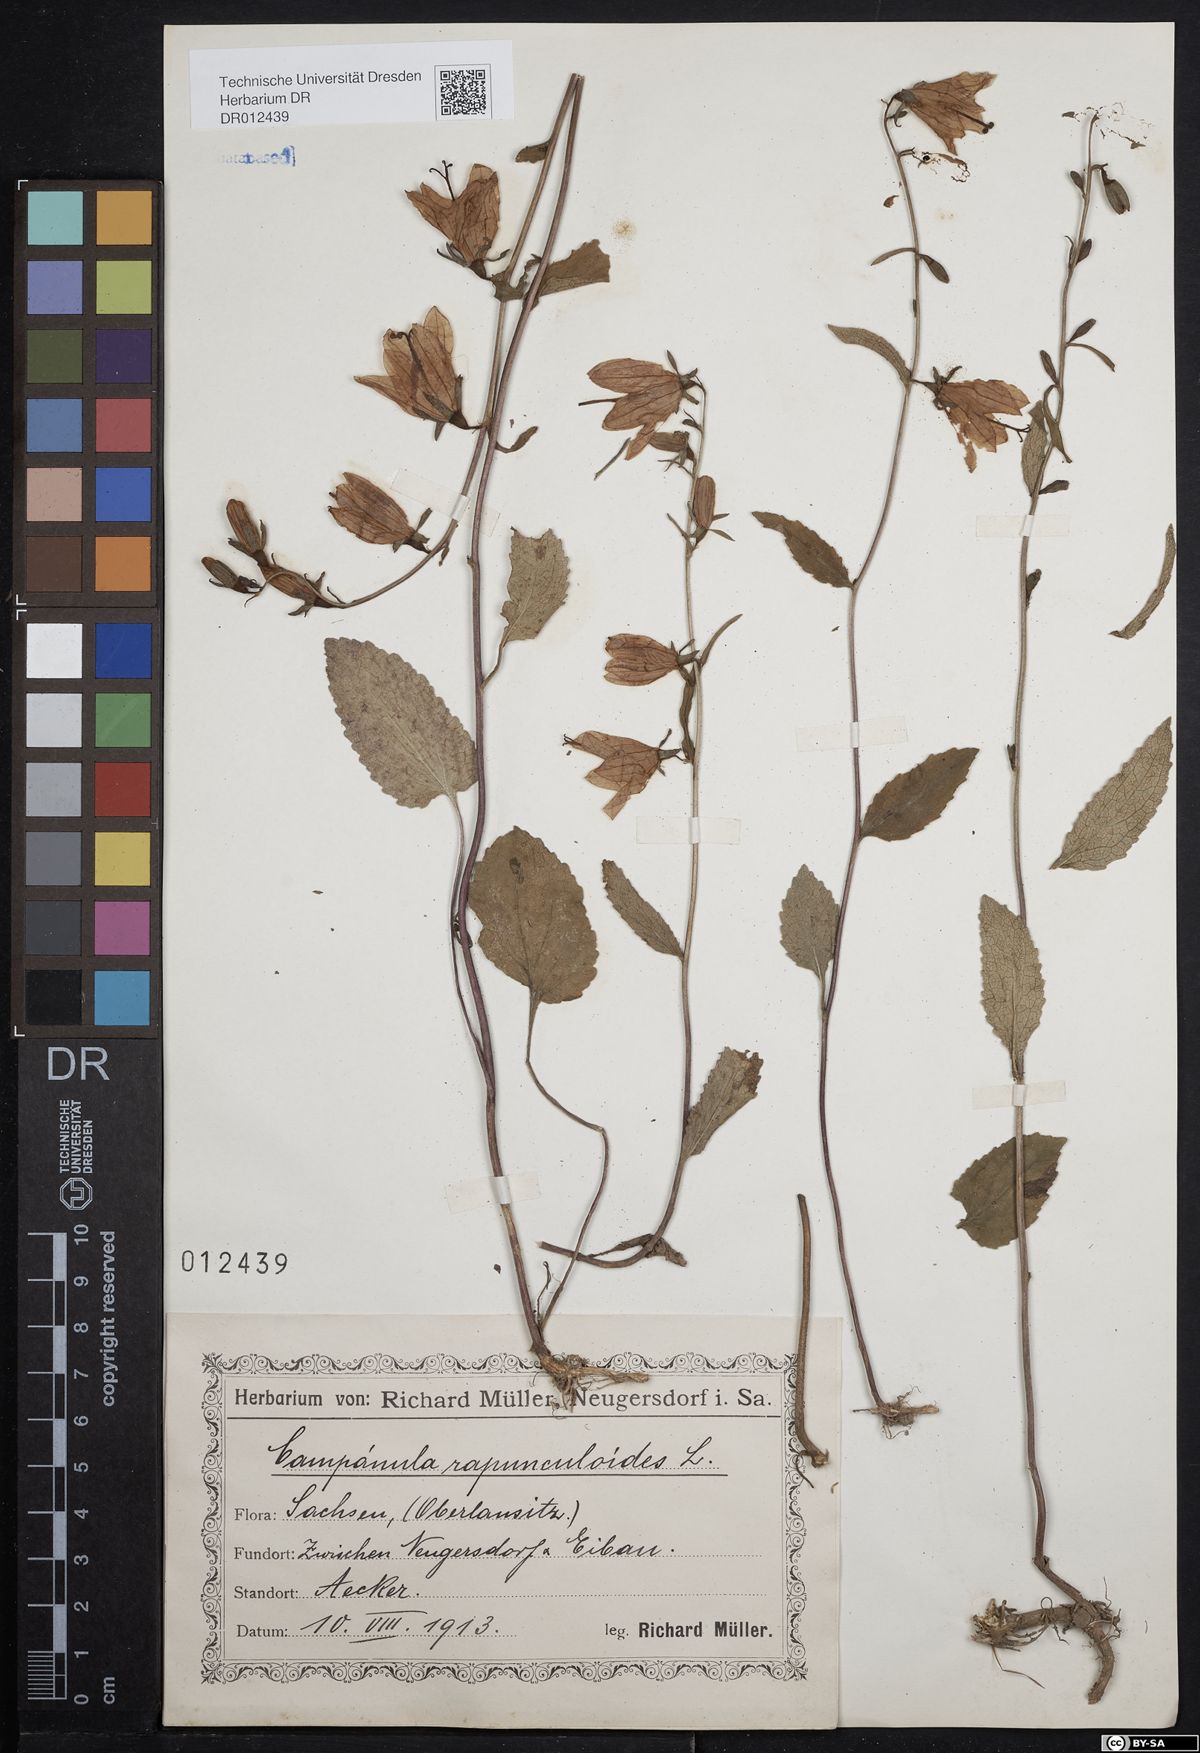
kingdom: Plantae
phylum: Tracheophyta
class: Magnoliopsida
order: Asterales
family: Campanulaceae
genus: Campanula
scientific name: Campanula rapunculoides
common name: Creeping bellflower
